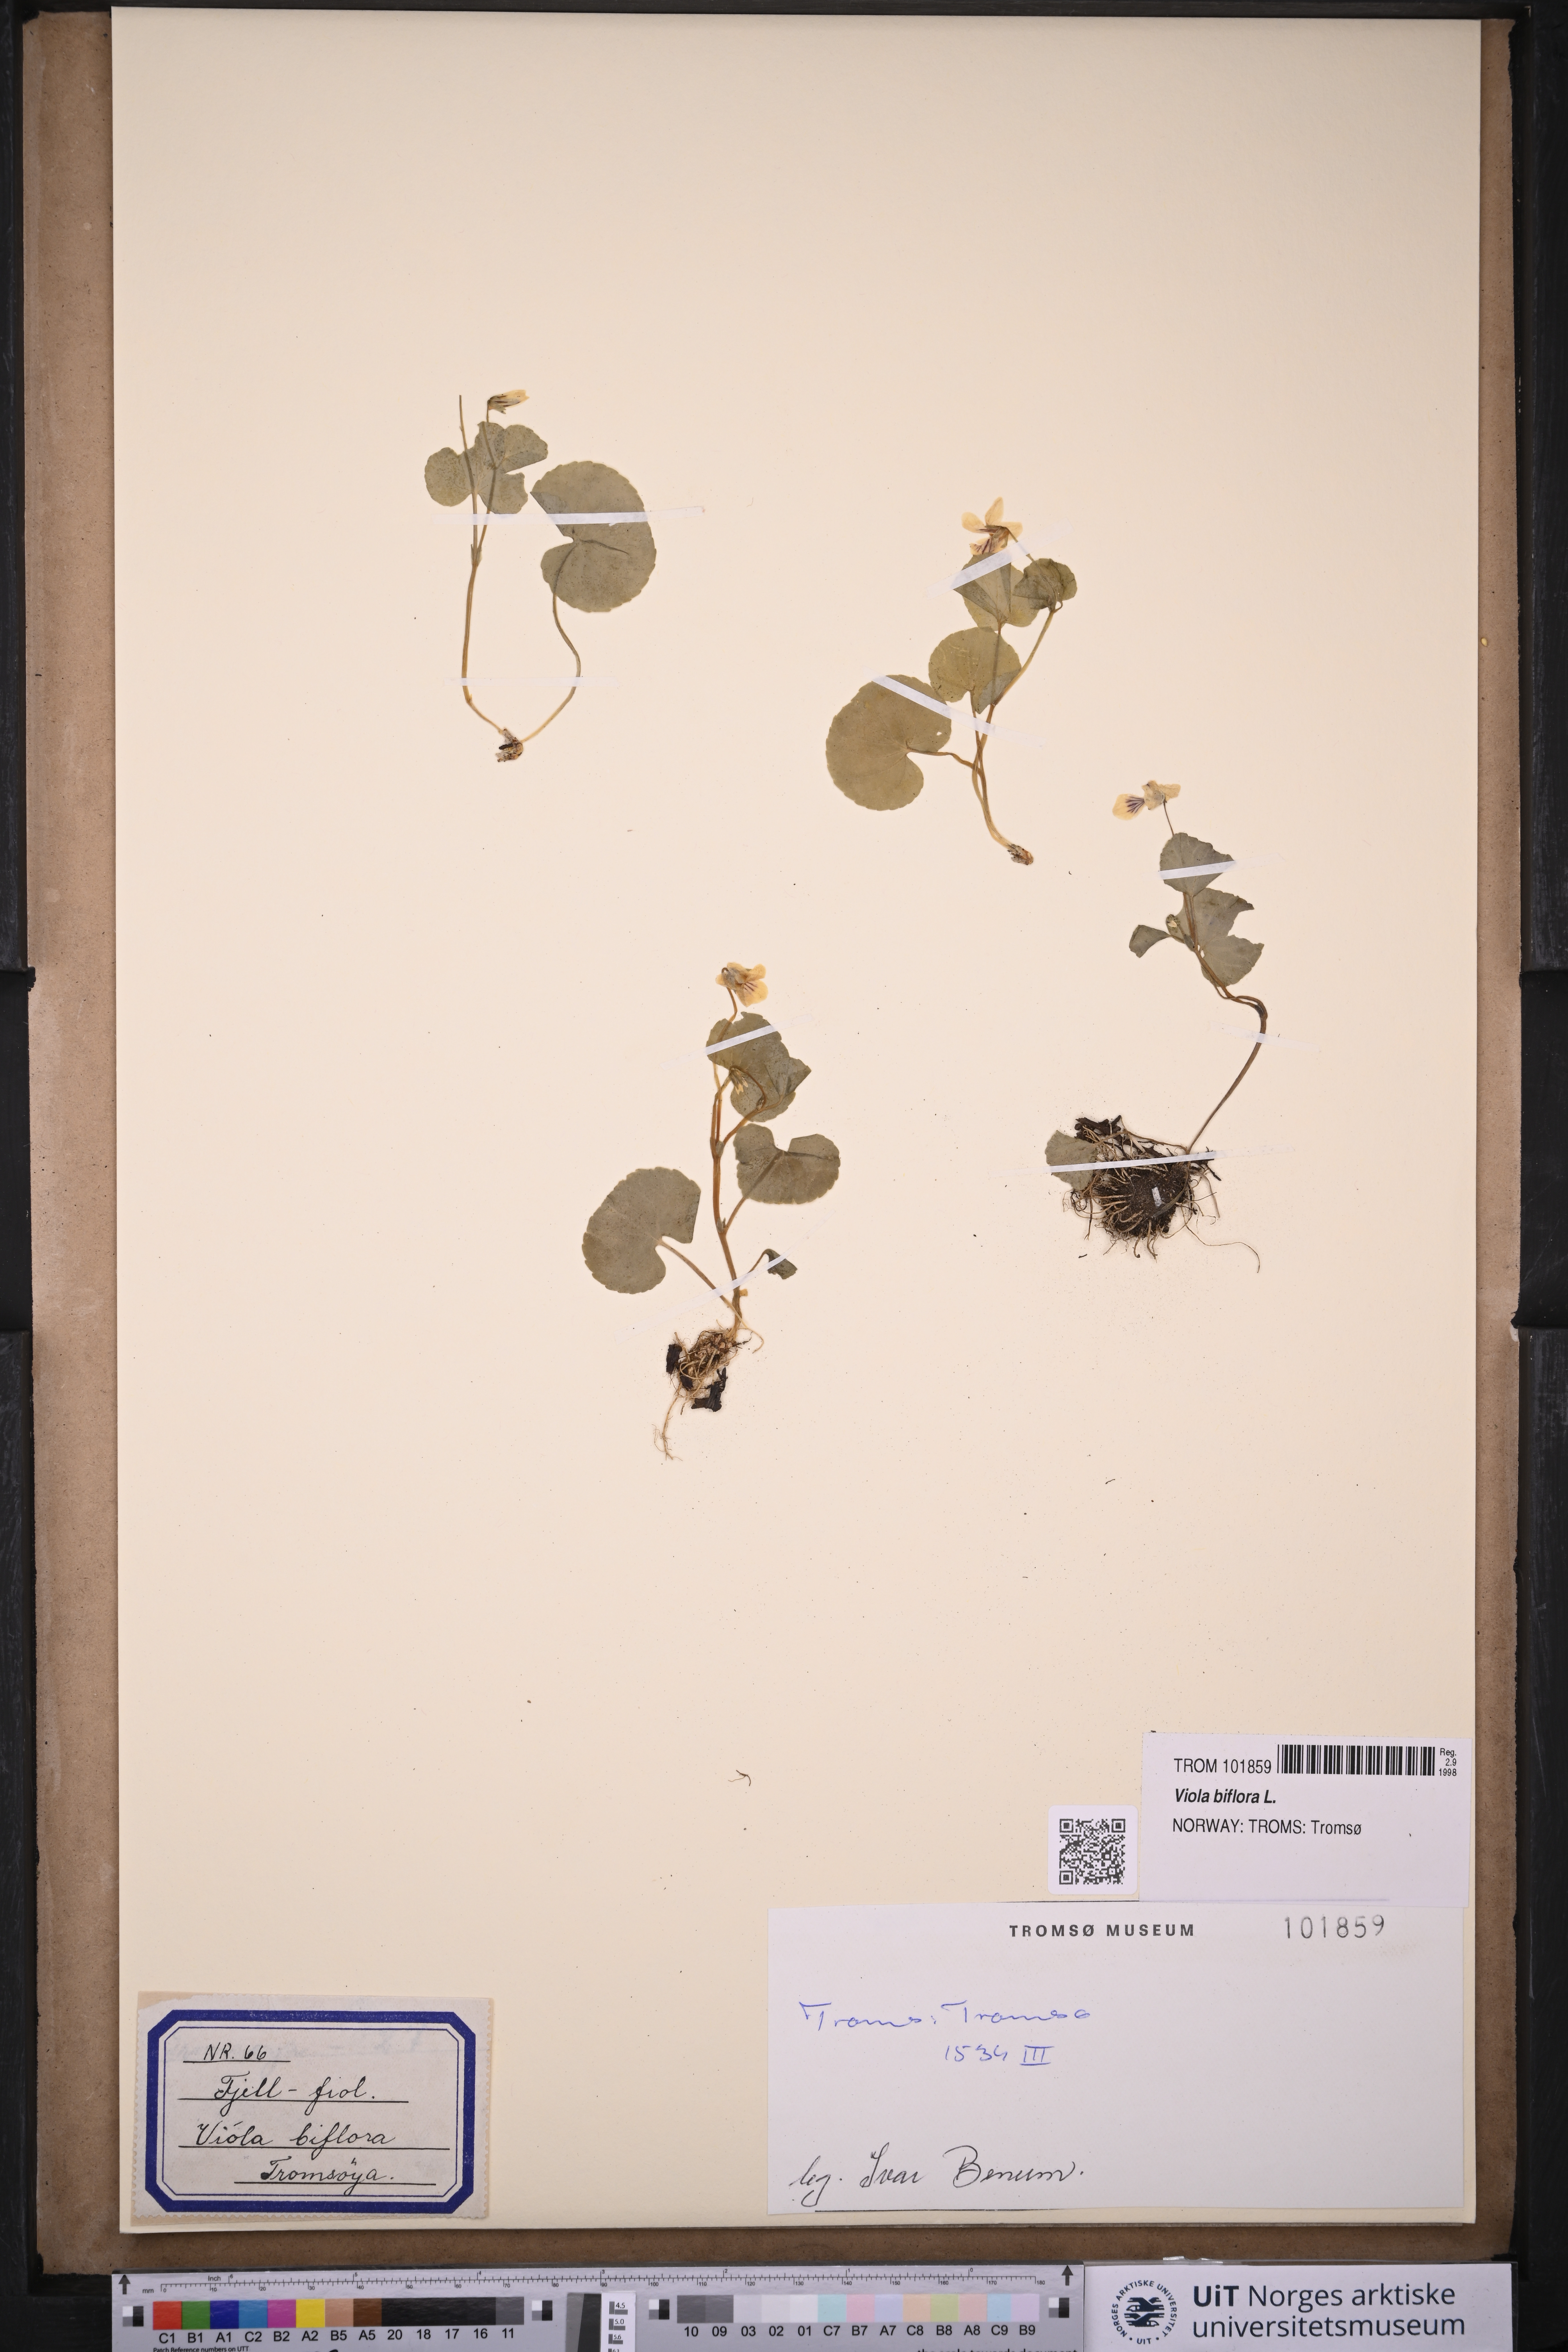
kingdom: Plantae
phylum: Tracheophyta
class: Magnoliopsida
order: Malpighiales
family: Violaceae
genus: Viola
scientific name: Viola biflora
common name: Alpine yellow violet
